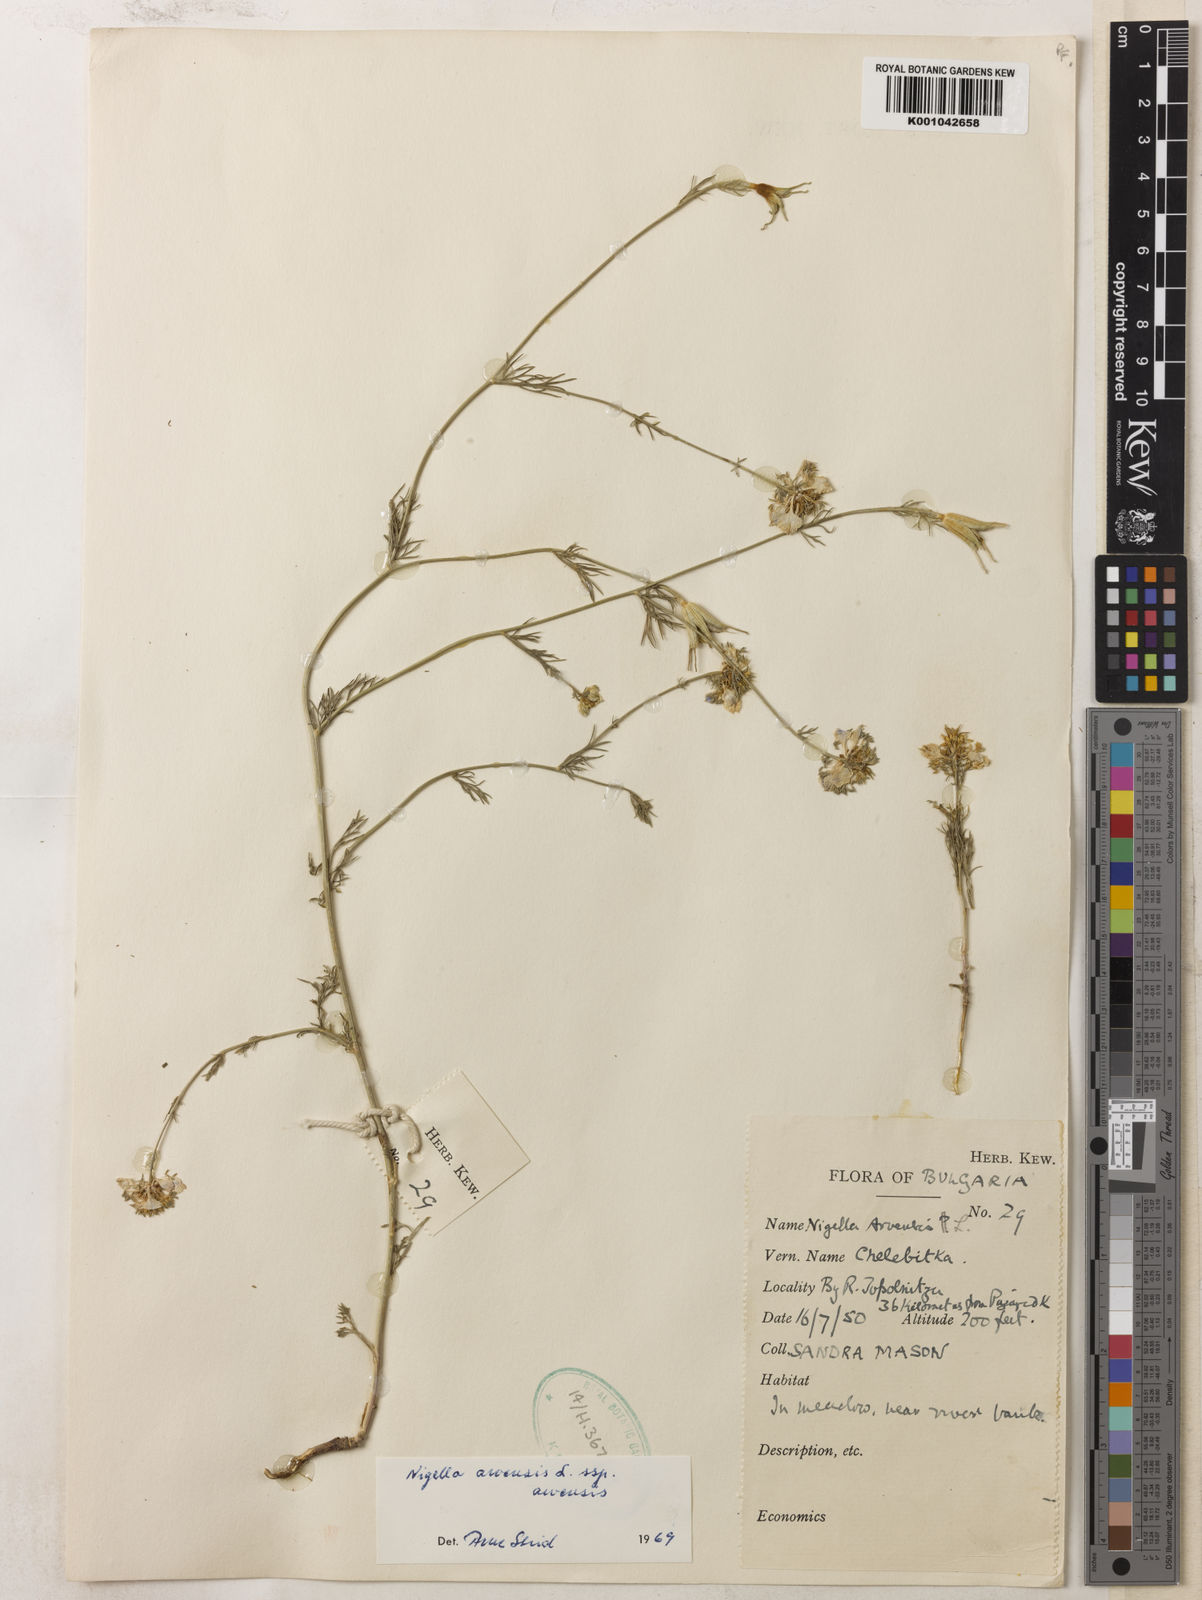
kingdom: Plantae
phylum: Tracheophyta
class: Magnoliopsida
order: Ranunculales
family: Ranunculaceae
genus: Nigella
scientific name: Nigella arvensis
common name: Wild fennel-flower
